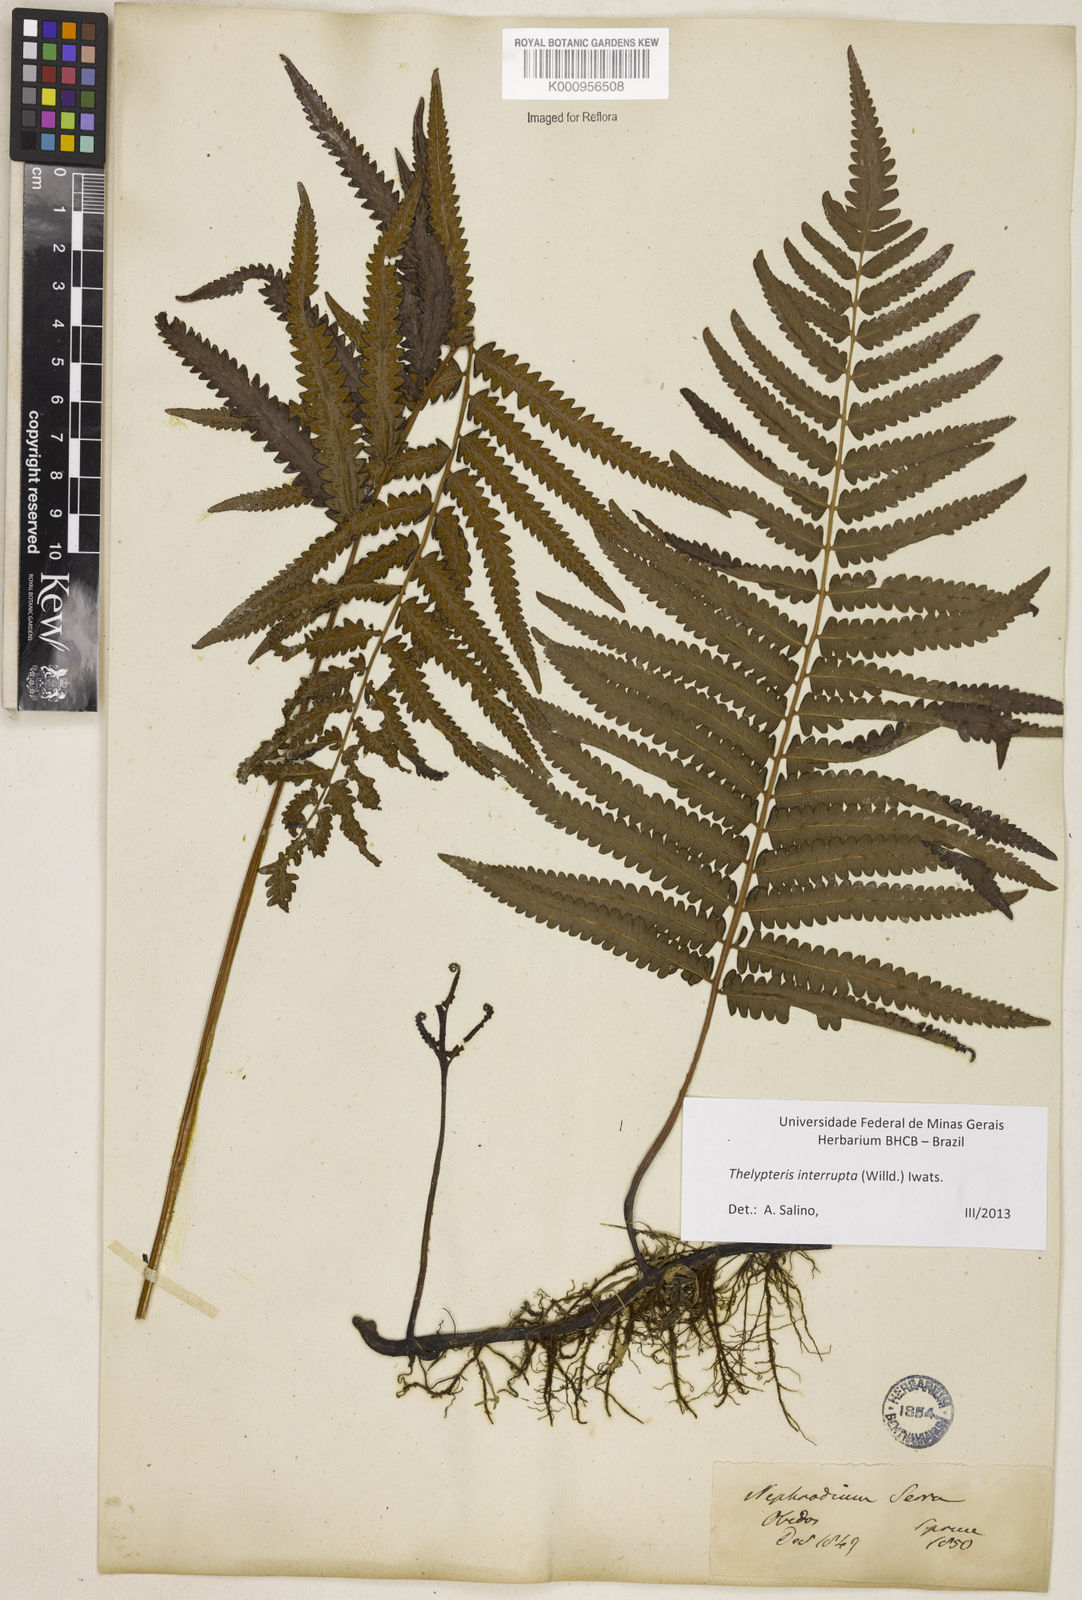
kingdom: Plantae
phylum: Tracheophyta
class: Polypodiopsida
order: Polypodiales
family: Thelypteridaceae
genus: Cyclosorus
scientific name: Cyclosorus interruptus
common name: Neke fern
